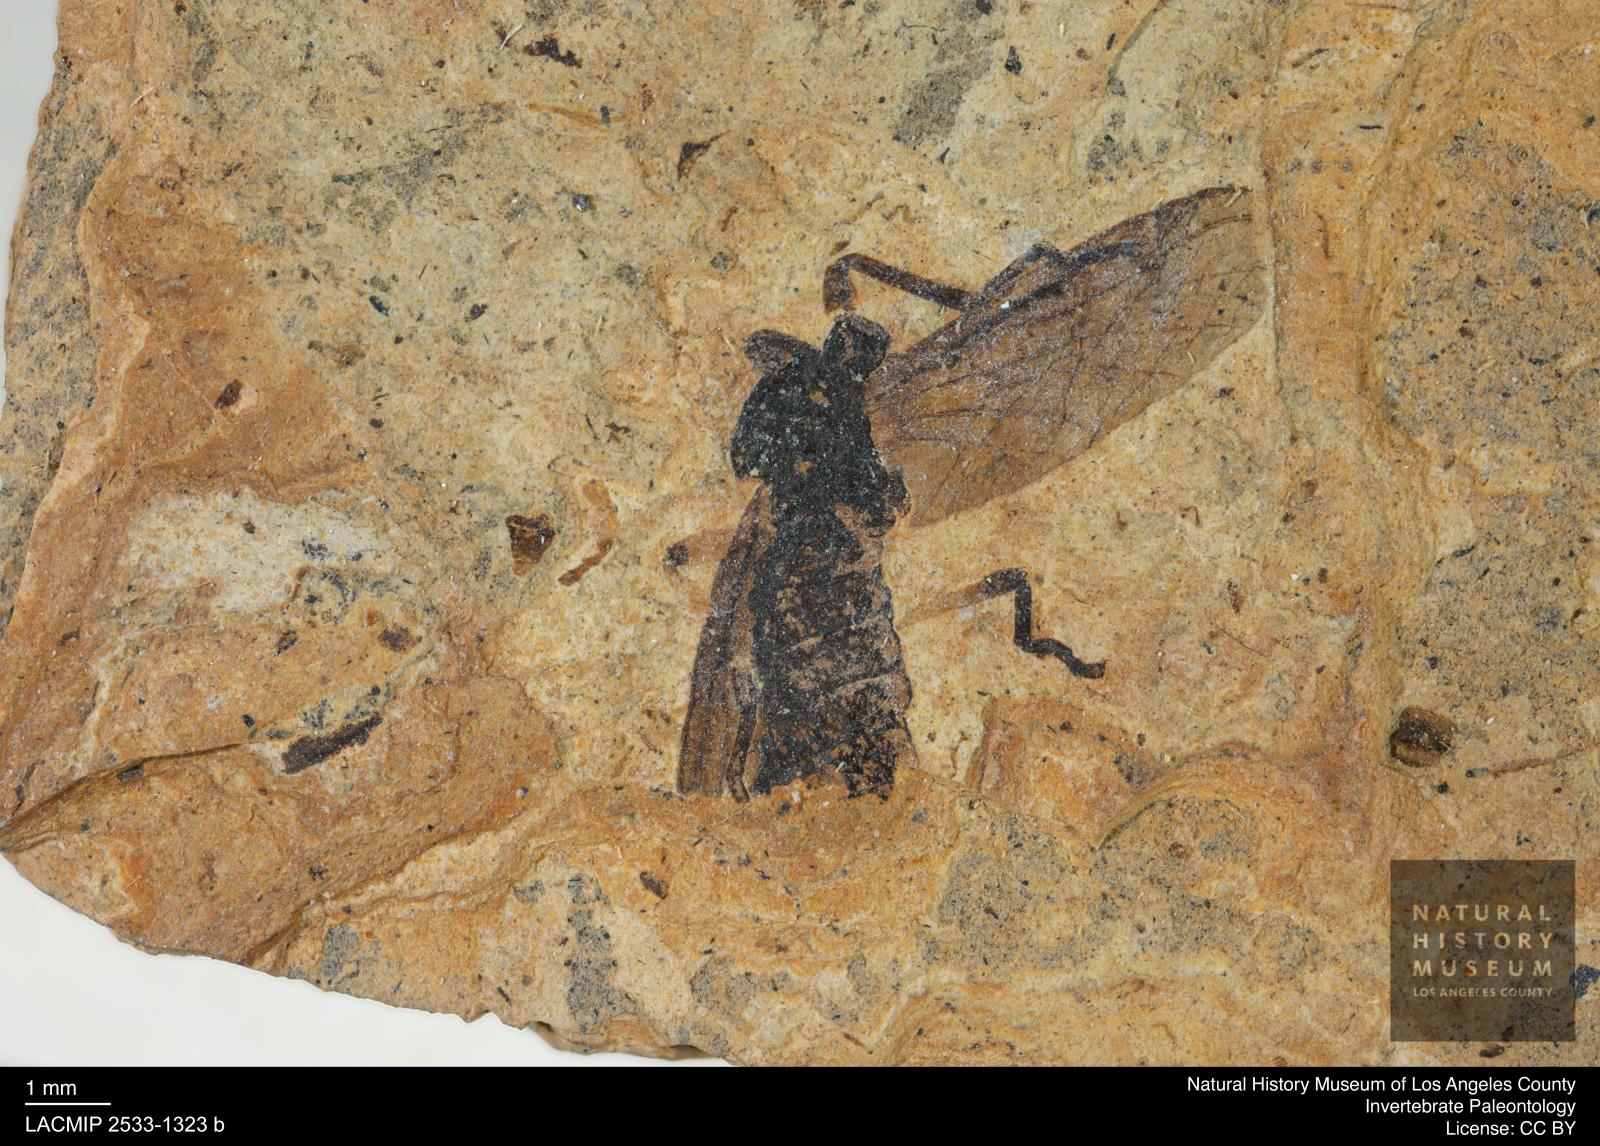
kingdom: Animalia
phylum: Arthropoda
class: Insecta
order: Diptera
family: Bibionidae
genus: Plecia
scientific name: Plecia stygia
